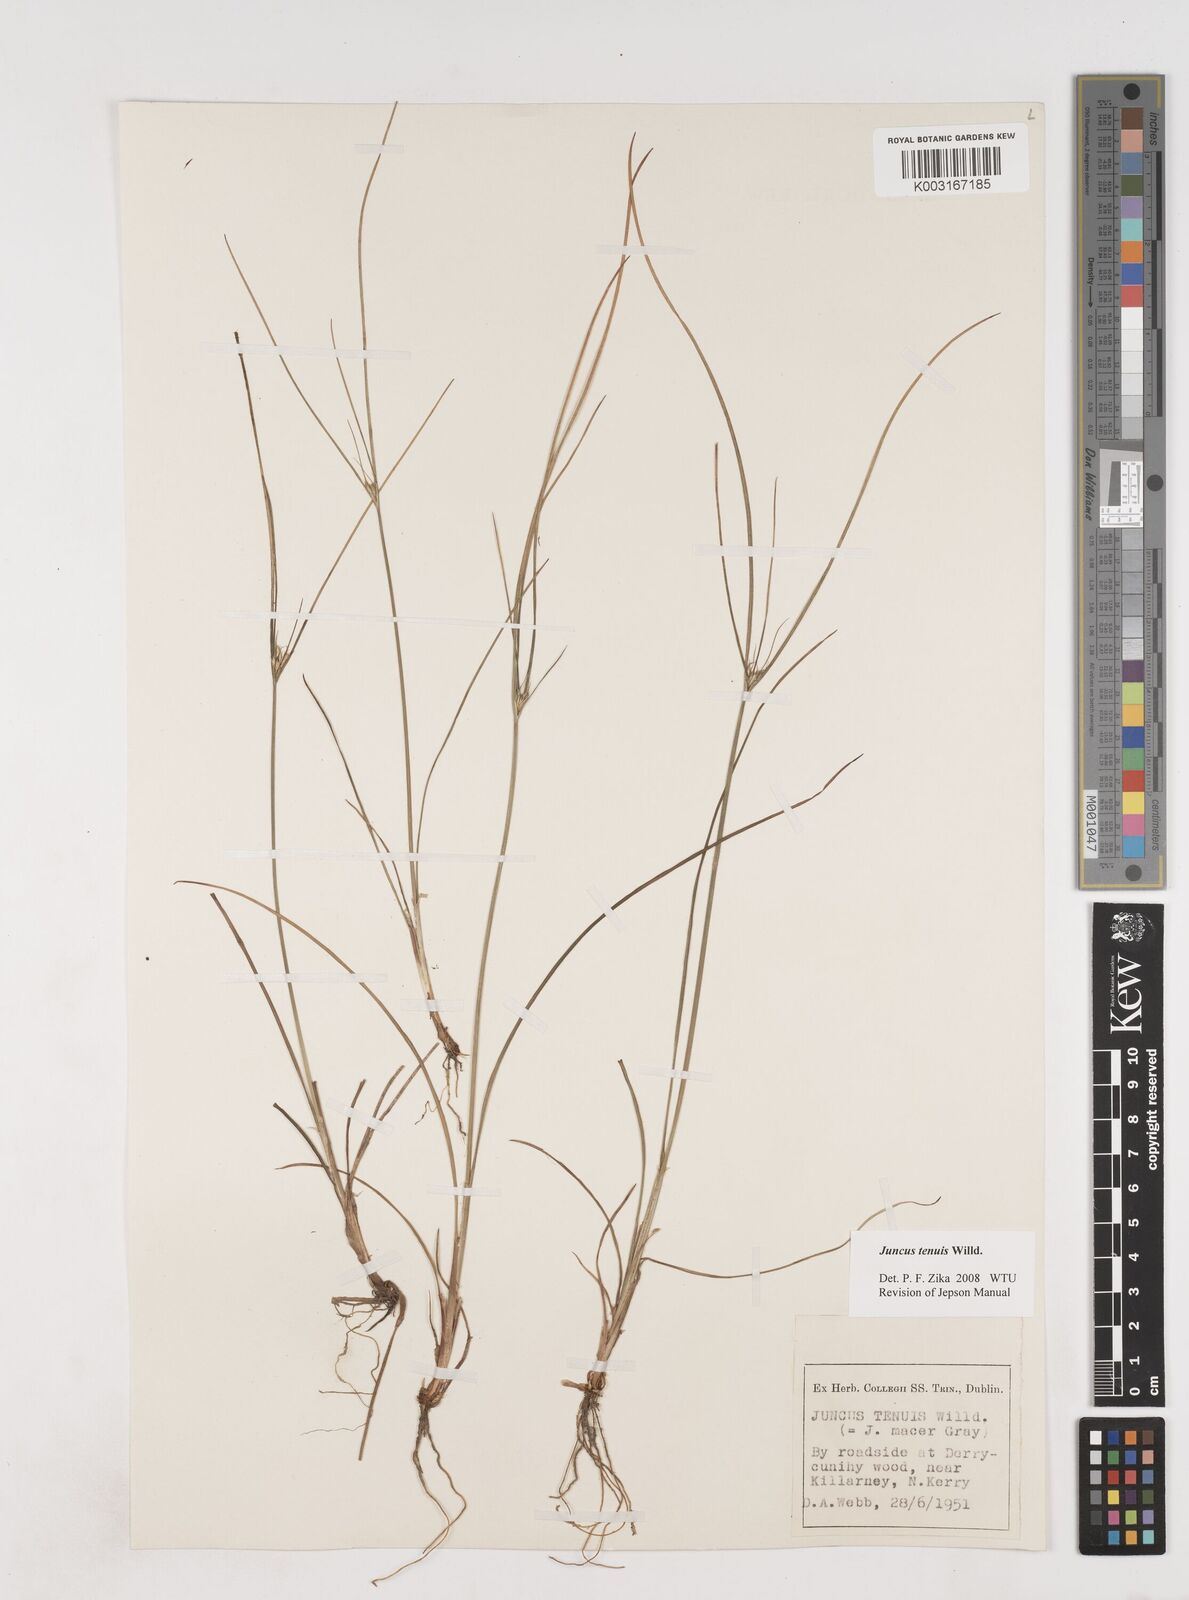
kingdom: Plantae
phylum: Tracheophyta
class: Liliopsida
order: Poales
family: Juncaceae
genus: Juncus
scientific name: Juncus tenuis
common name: Slender rush
